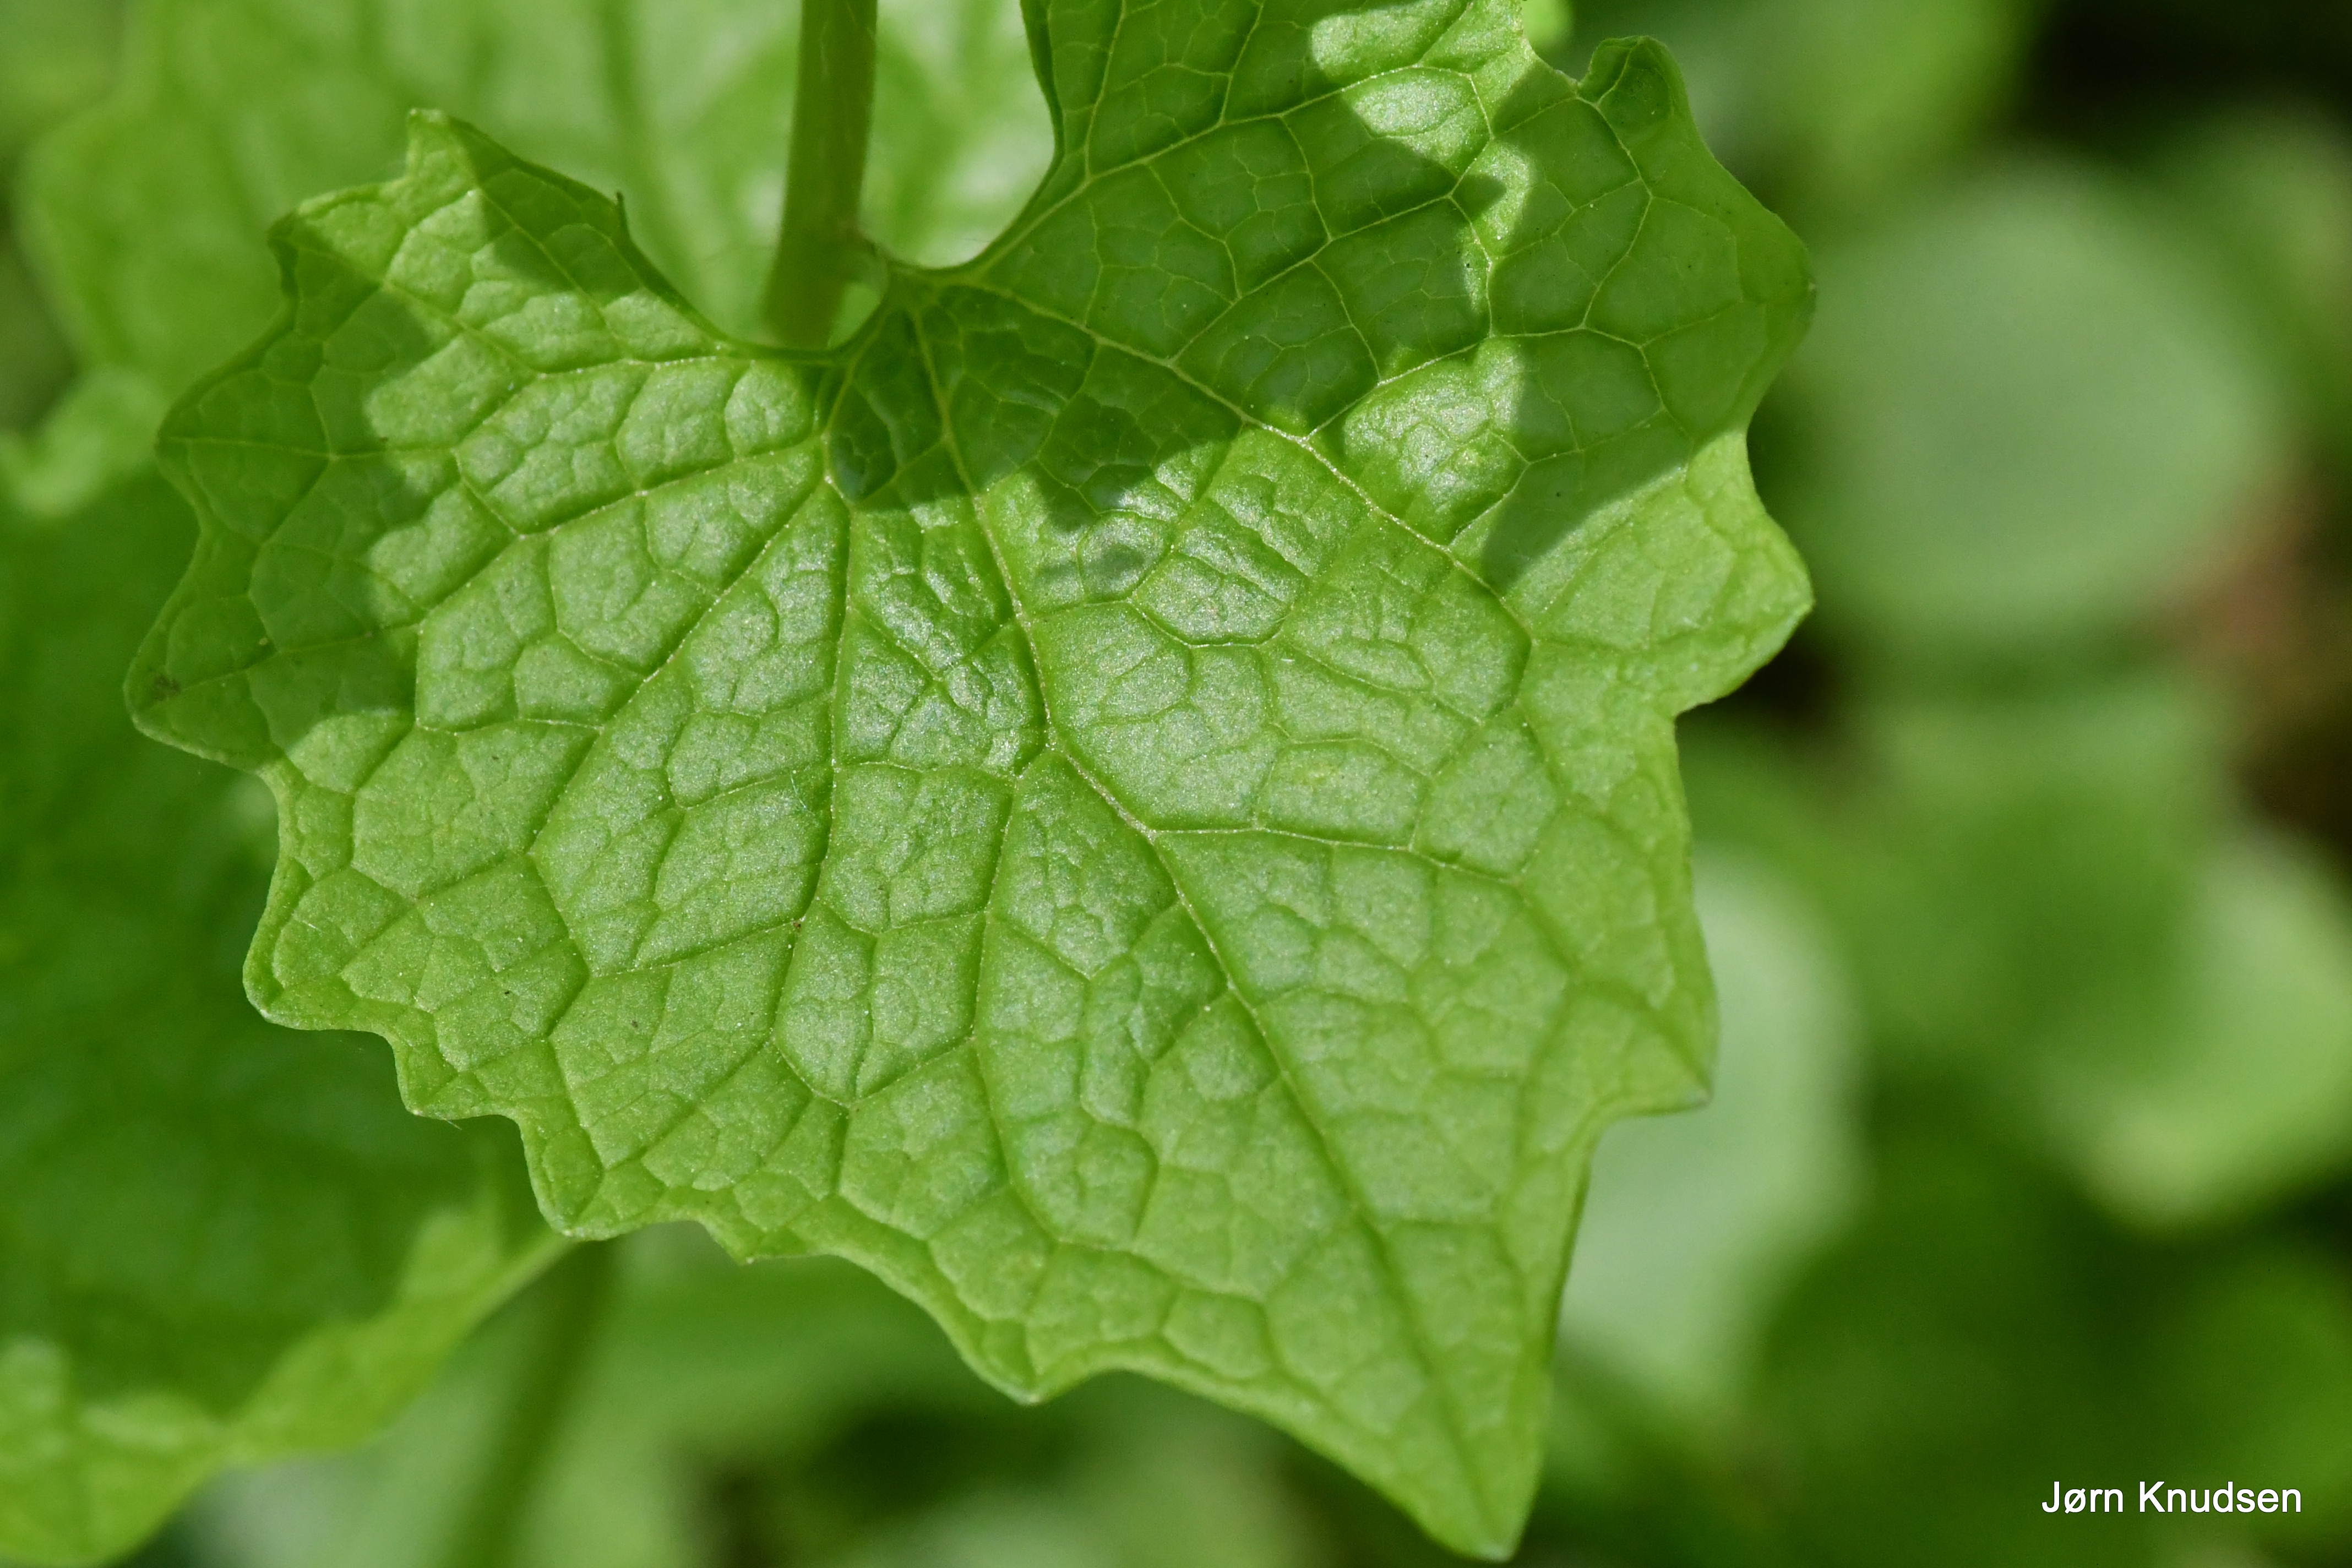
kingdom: Plantae
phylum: Tracheophyta
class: Magnoliopsida
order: Brassicales
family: Brassicaceae
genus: Alliaria
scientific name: Alliaria petiolata
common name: Løgkarse
